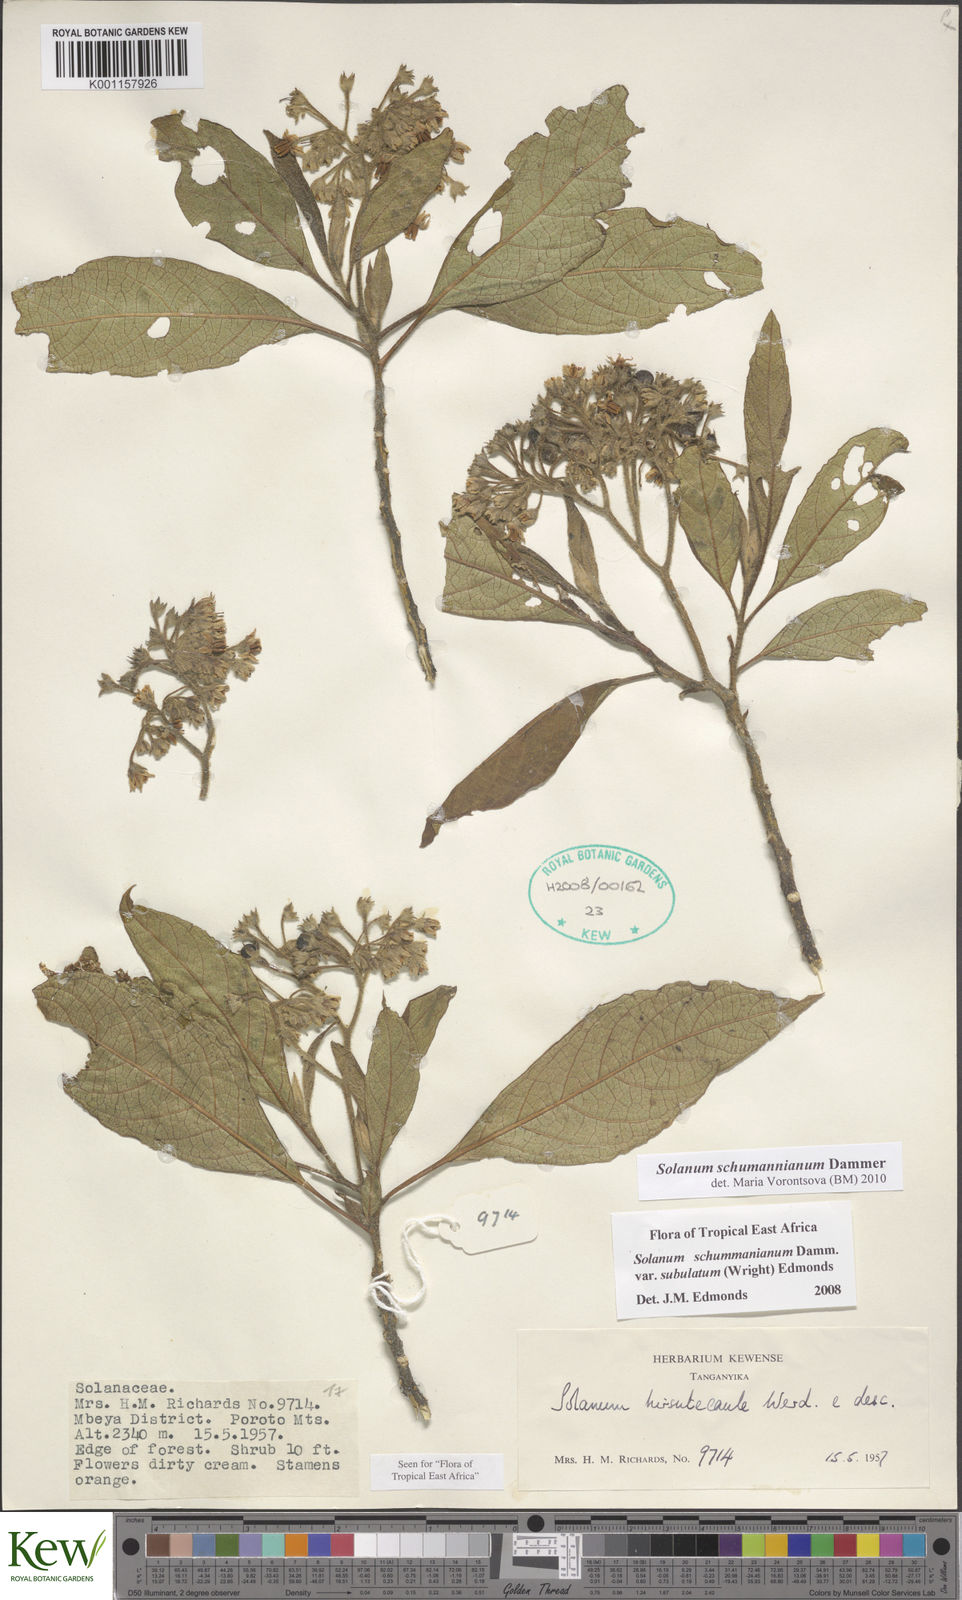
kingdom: Plantae
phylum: Tracheophyta
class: Magnoliopsida
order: Solanales
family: Solanaceae
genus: Solanum
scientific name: Solanum schumannianum
